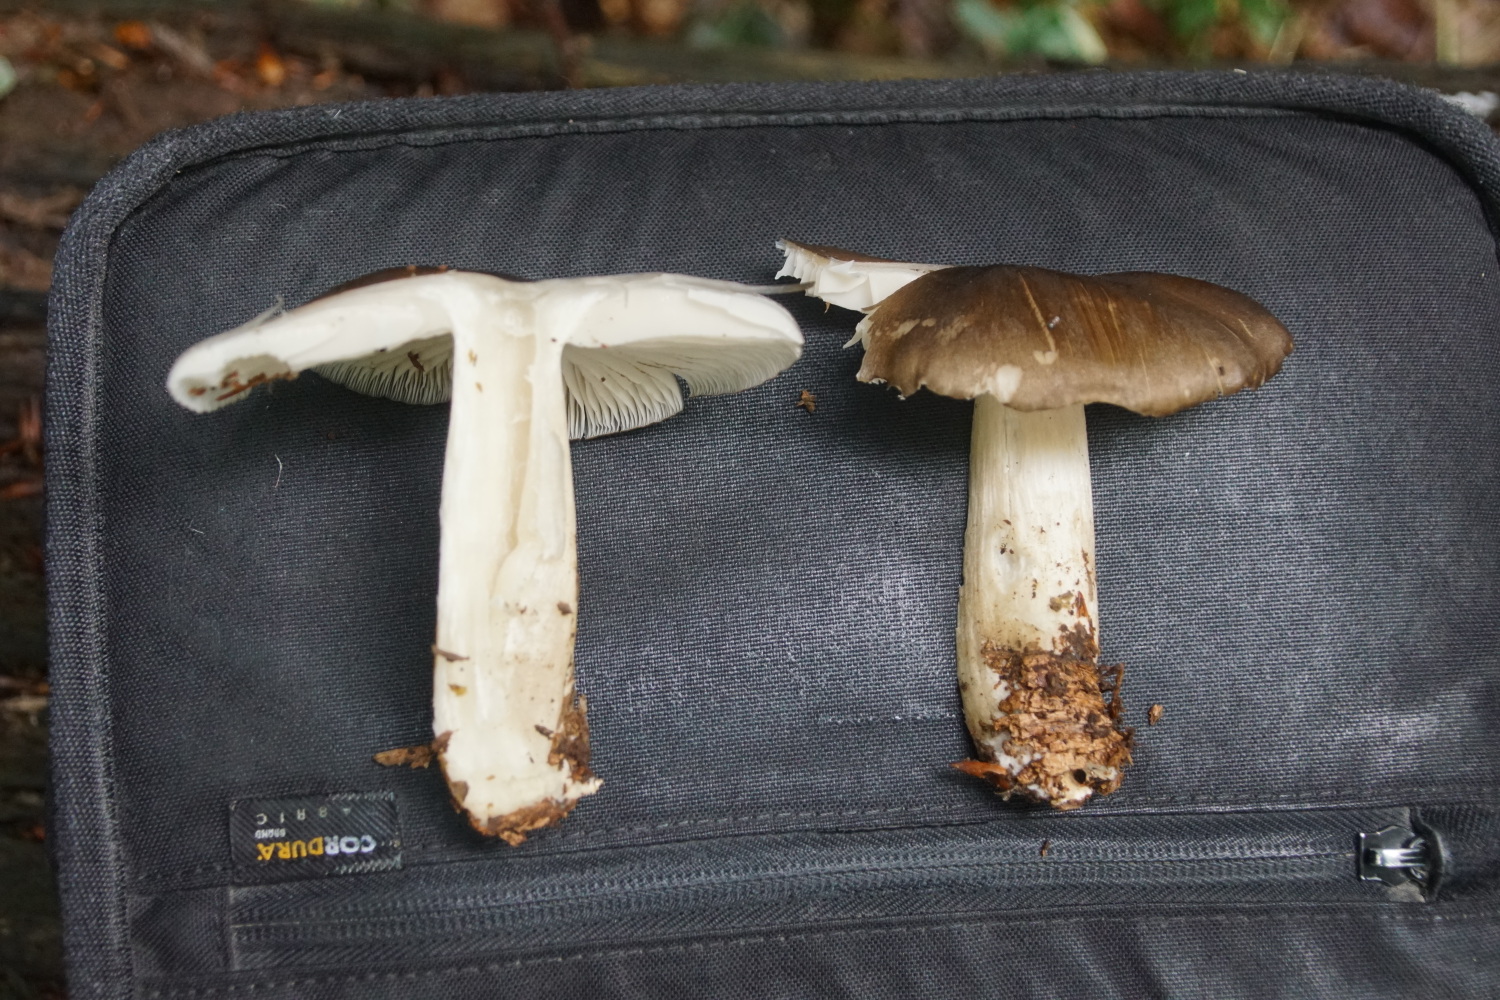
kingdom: Fungi
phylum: Basidiomycota
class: Agaricomycetes
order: Agaricales
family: Pluteaceae
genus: Pluteus
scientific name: Pluteus cervinus
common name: sodfarvet skærmhat
